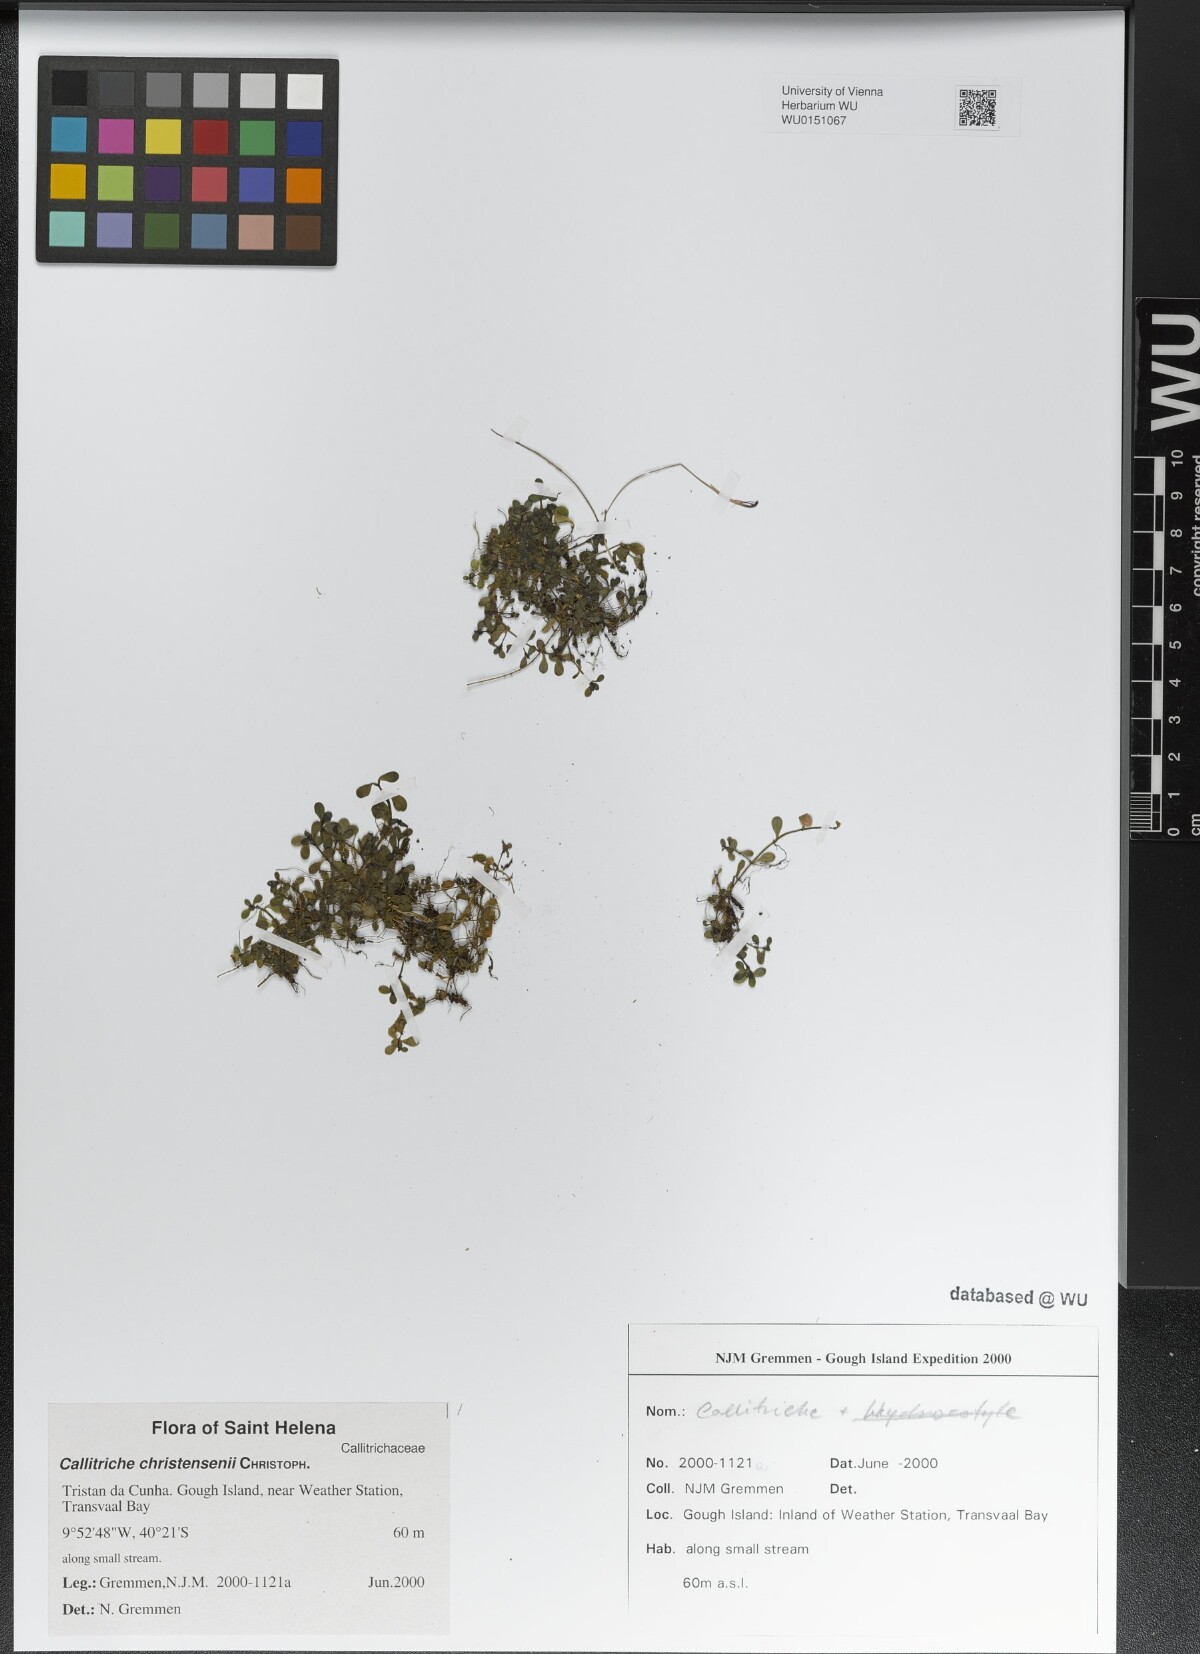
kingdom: Plantae
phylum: Tracheophyta
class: Magnoliopsida
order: Lamiales
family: Plantaginaceae
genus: Callitriche
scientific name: Callitriche christensenii
